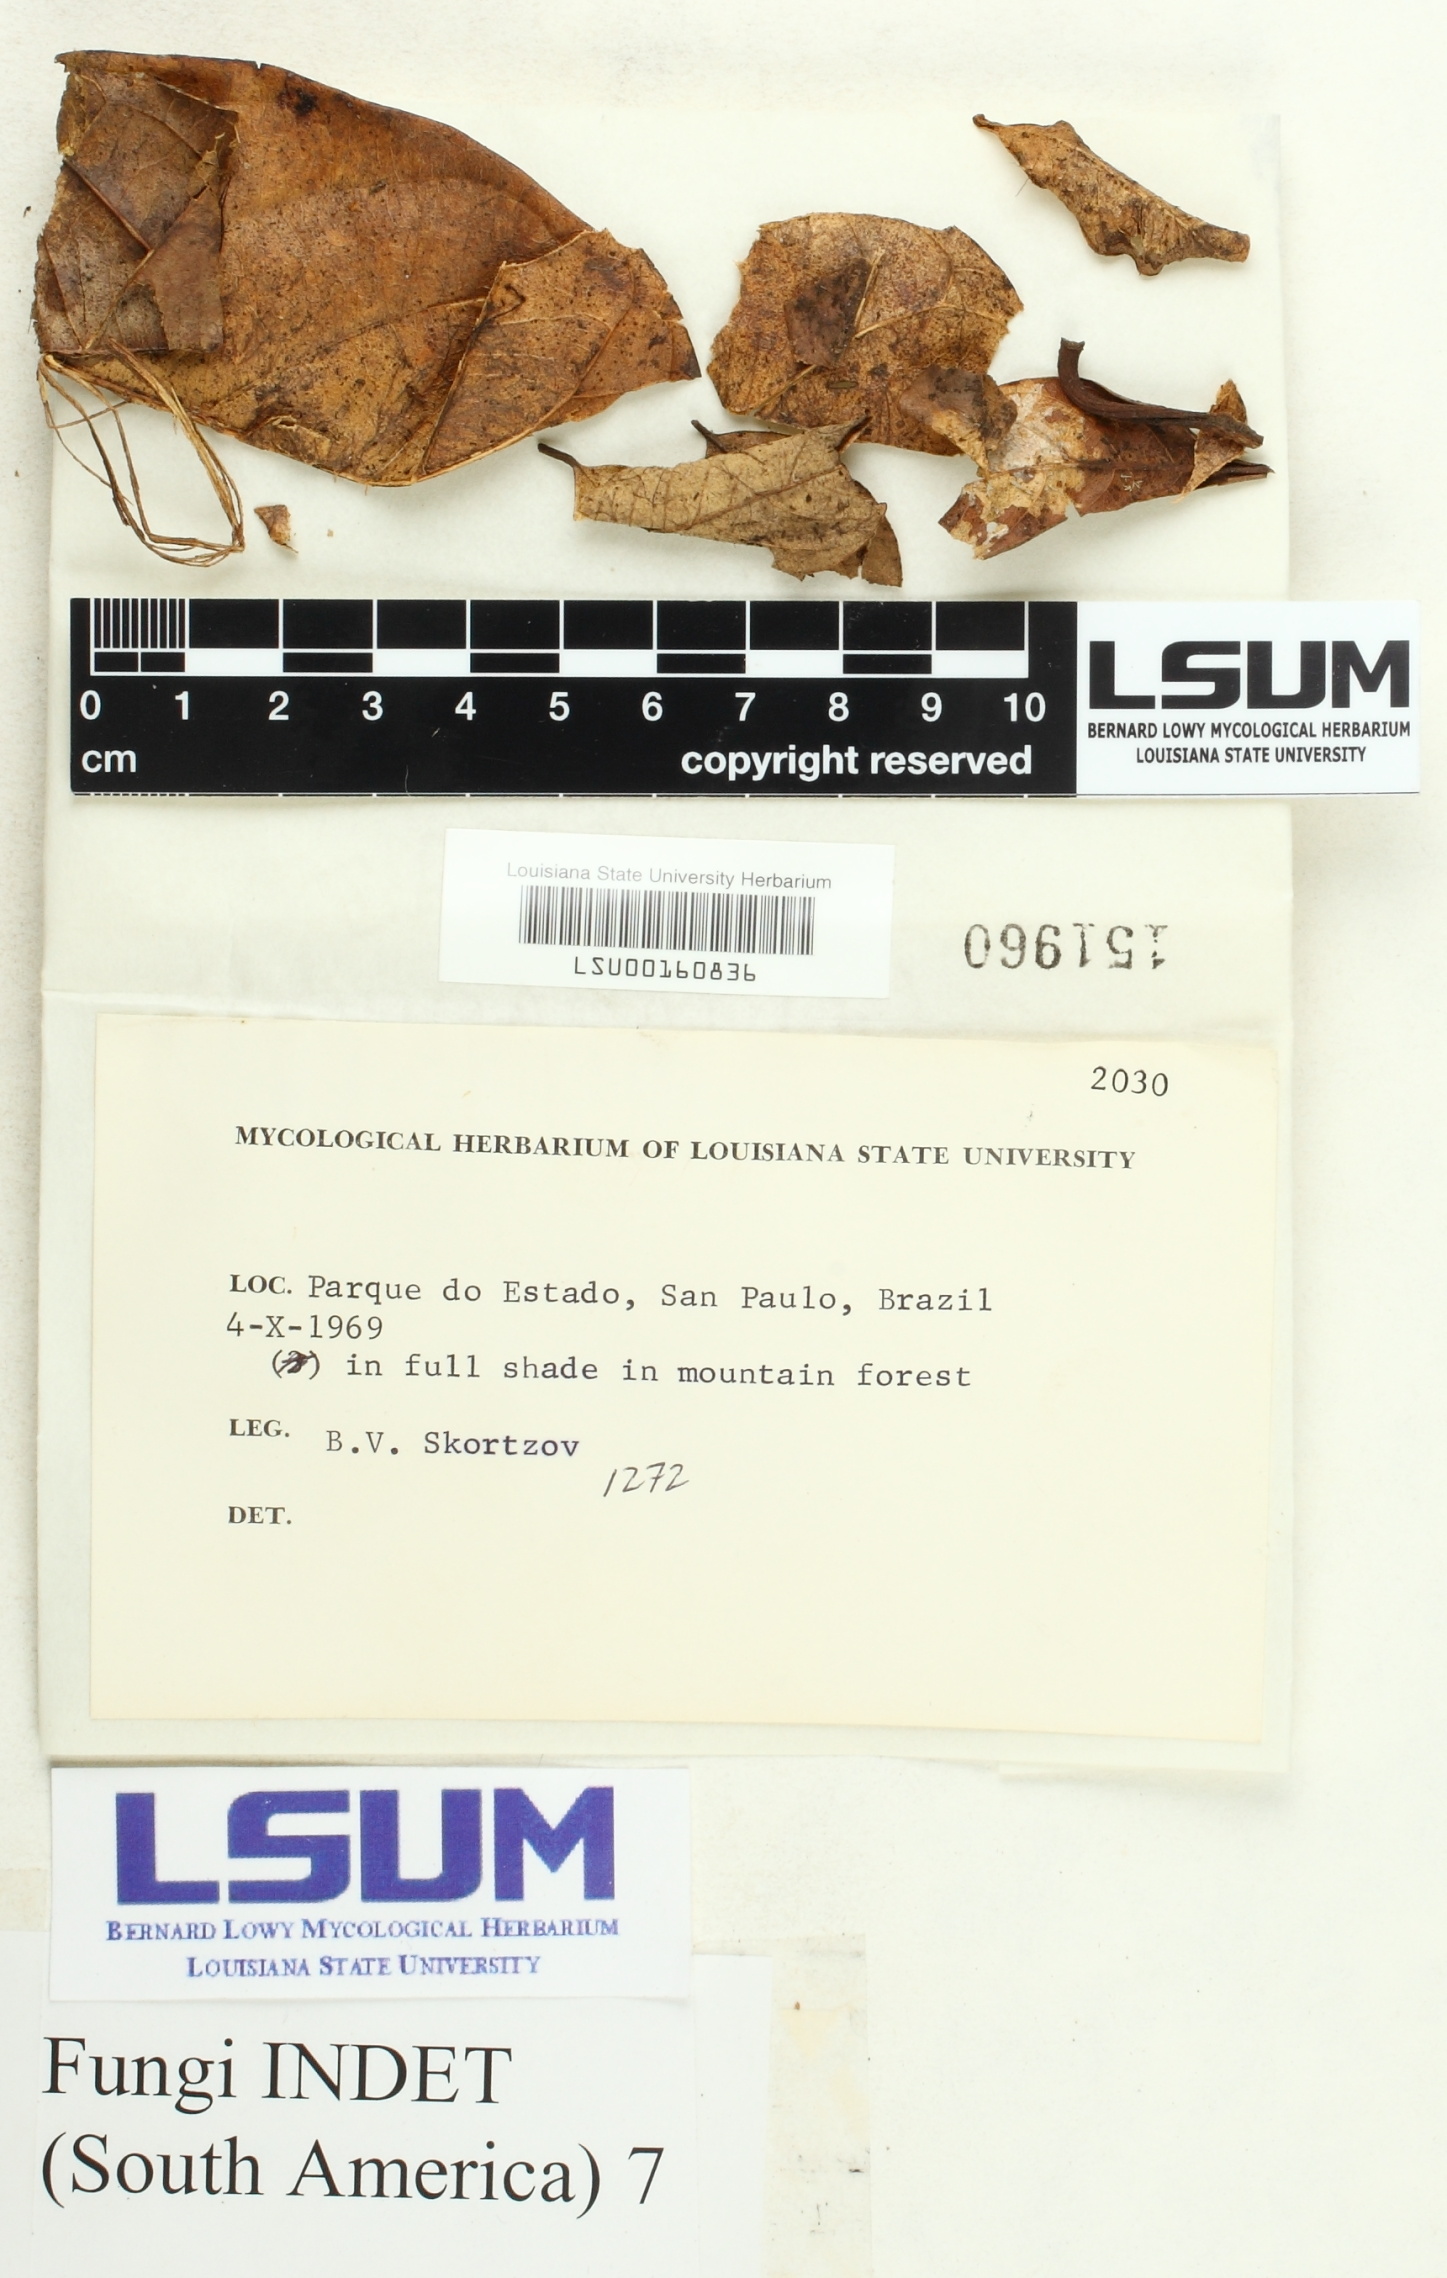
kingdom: Fungi
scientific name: Fungi
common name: Fungi
